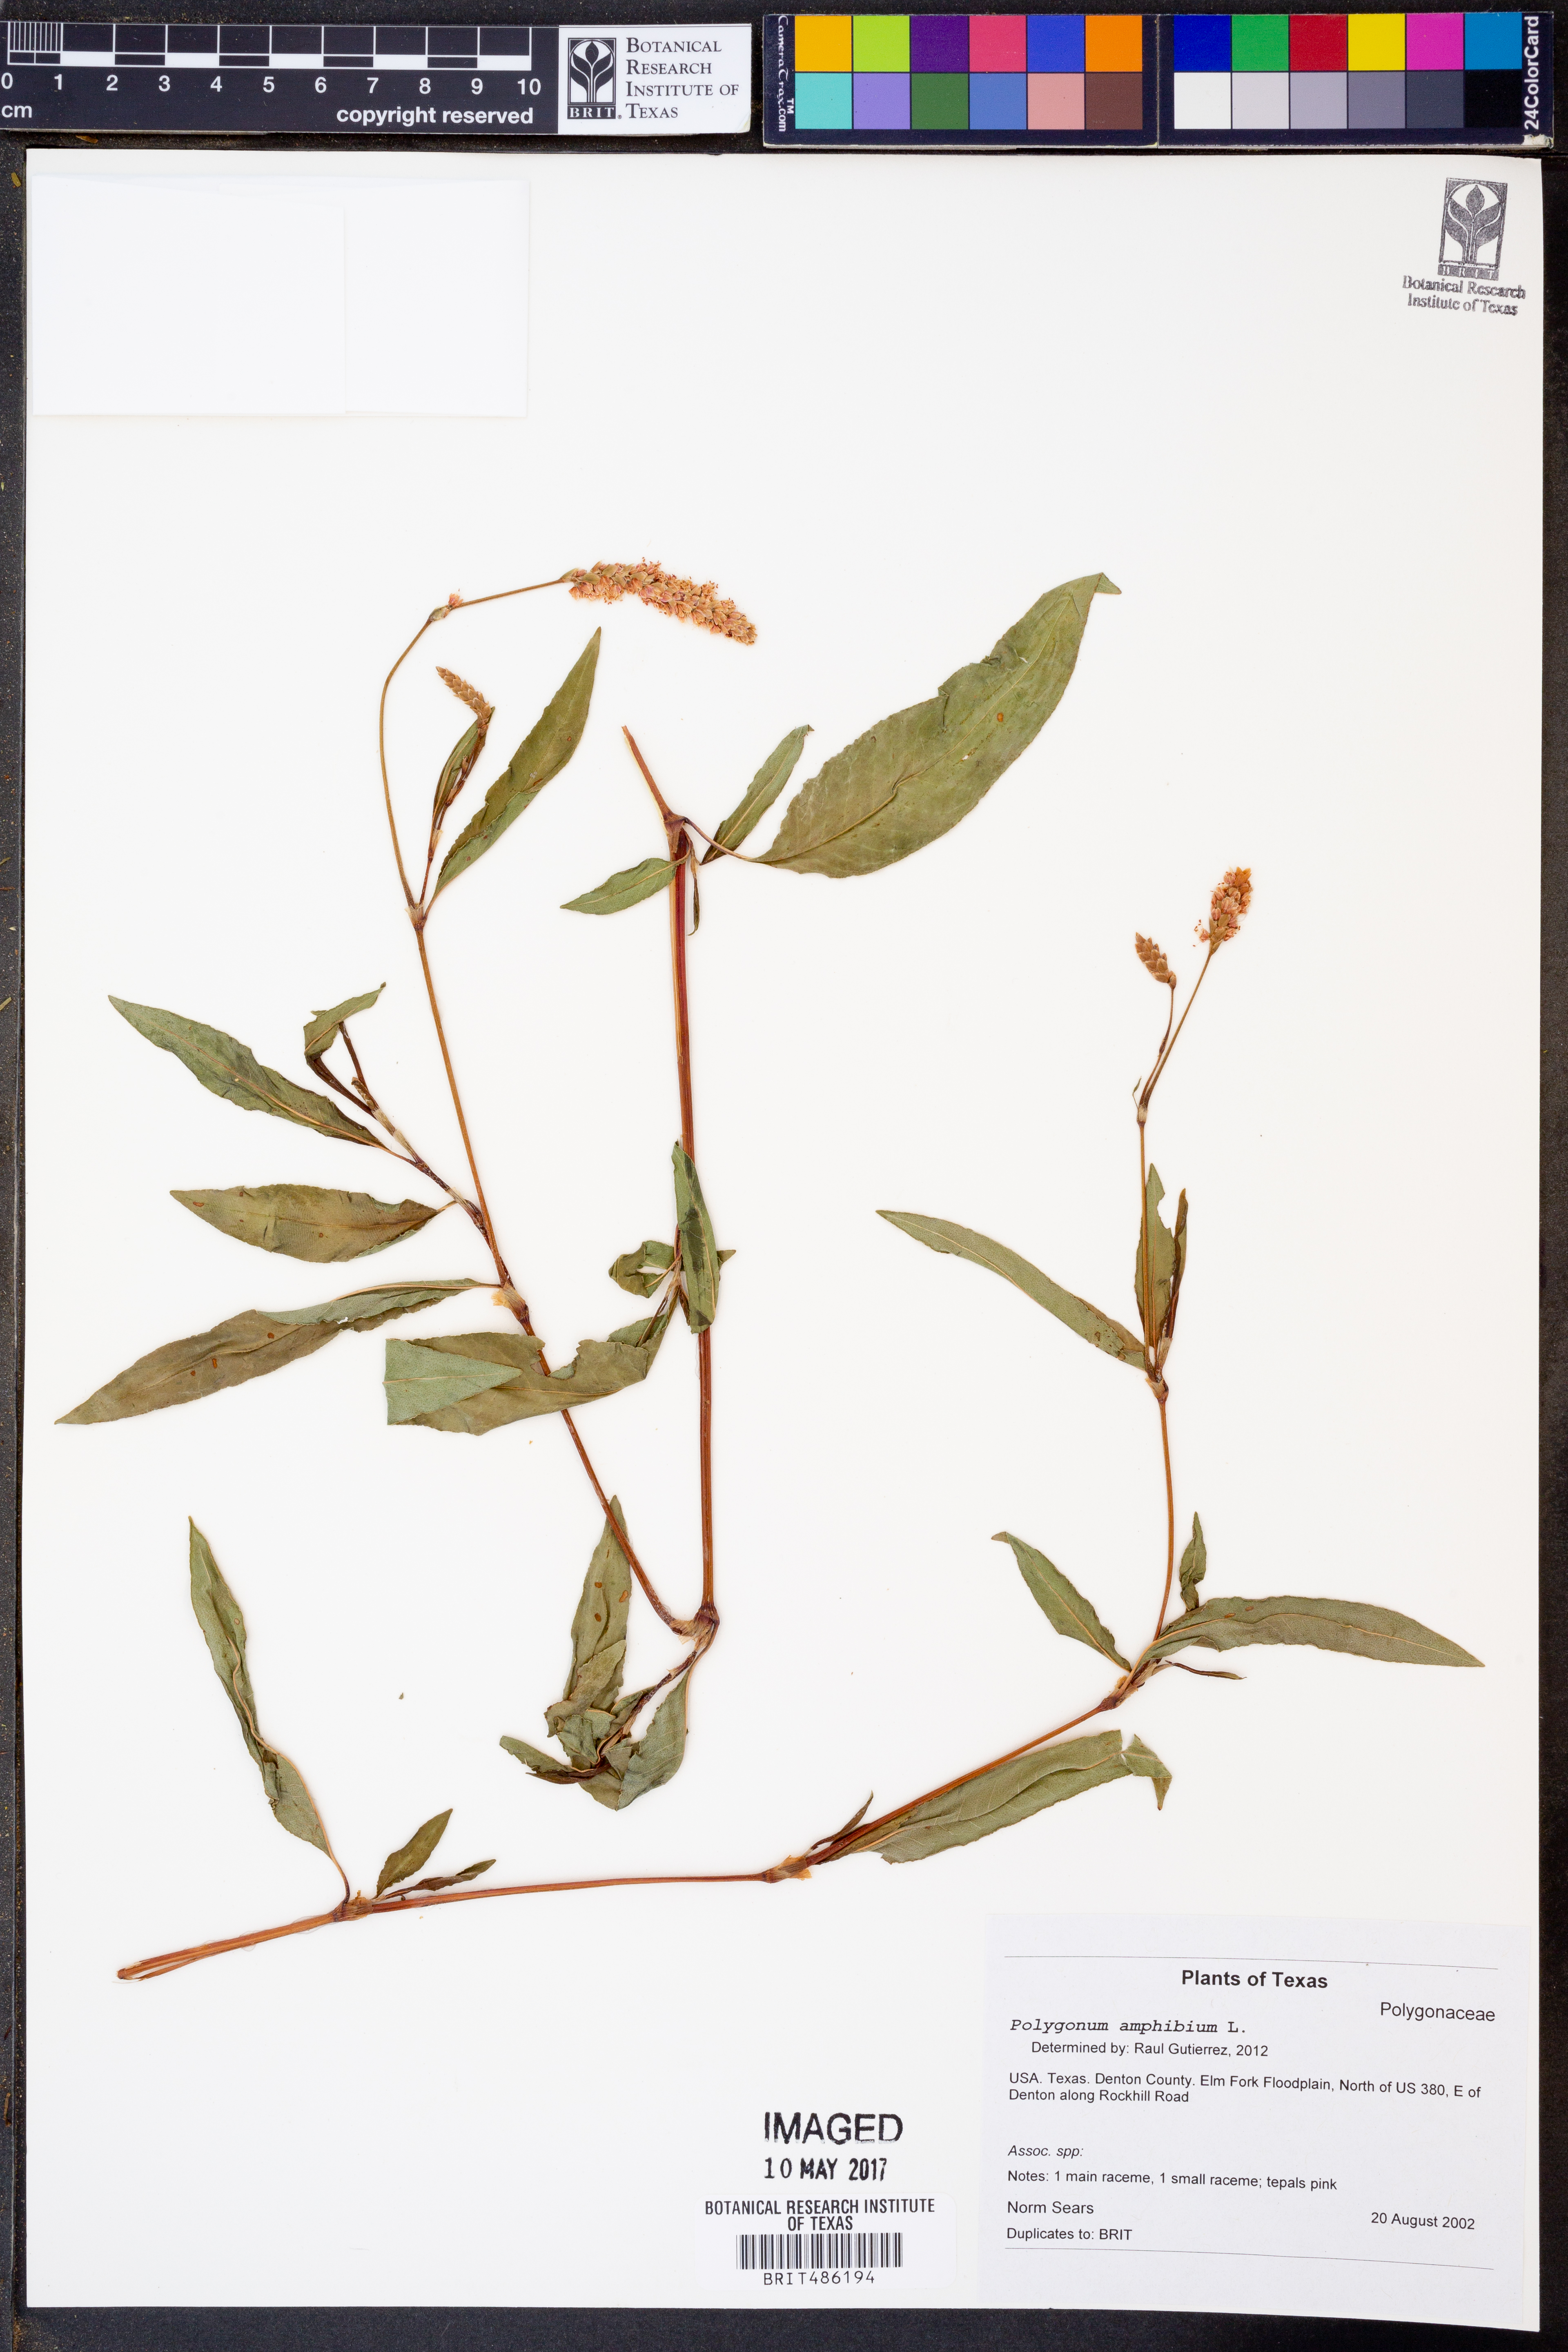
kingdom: Plantae
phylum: Tracheophyta
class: Magnoliopsida
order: Caryophyllales
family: Polygonaceae
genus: Persicaria
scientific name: Persicaria amphibia
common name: Amphibious bistort
